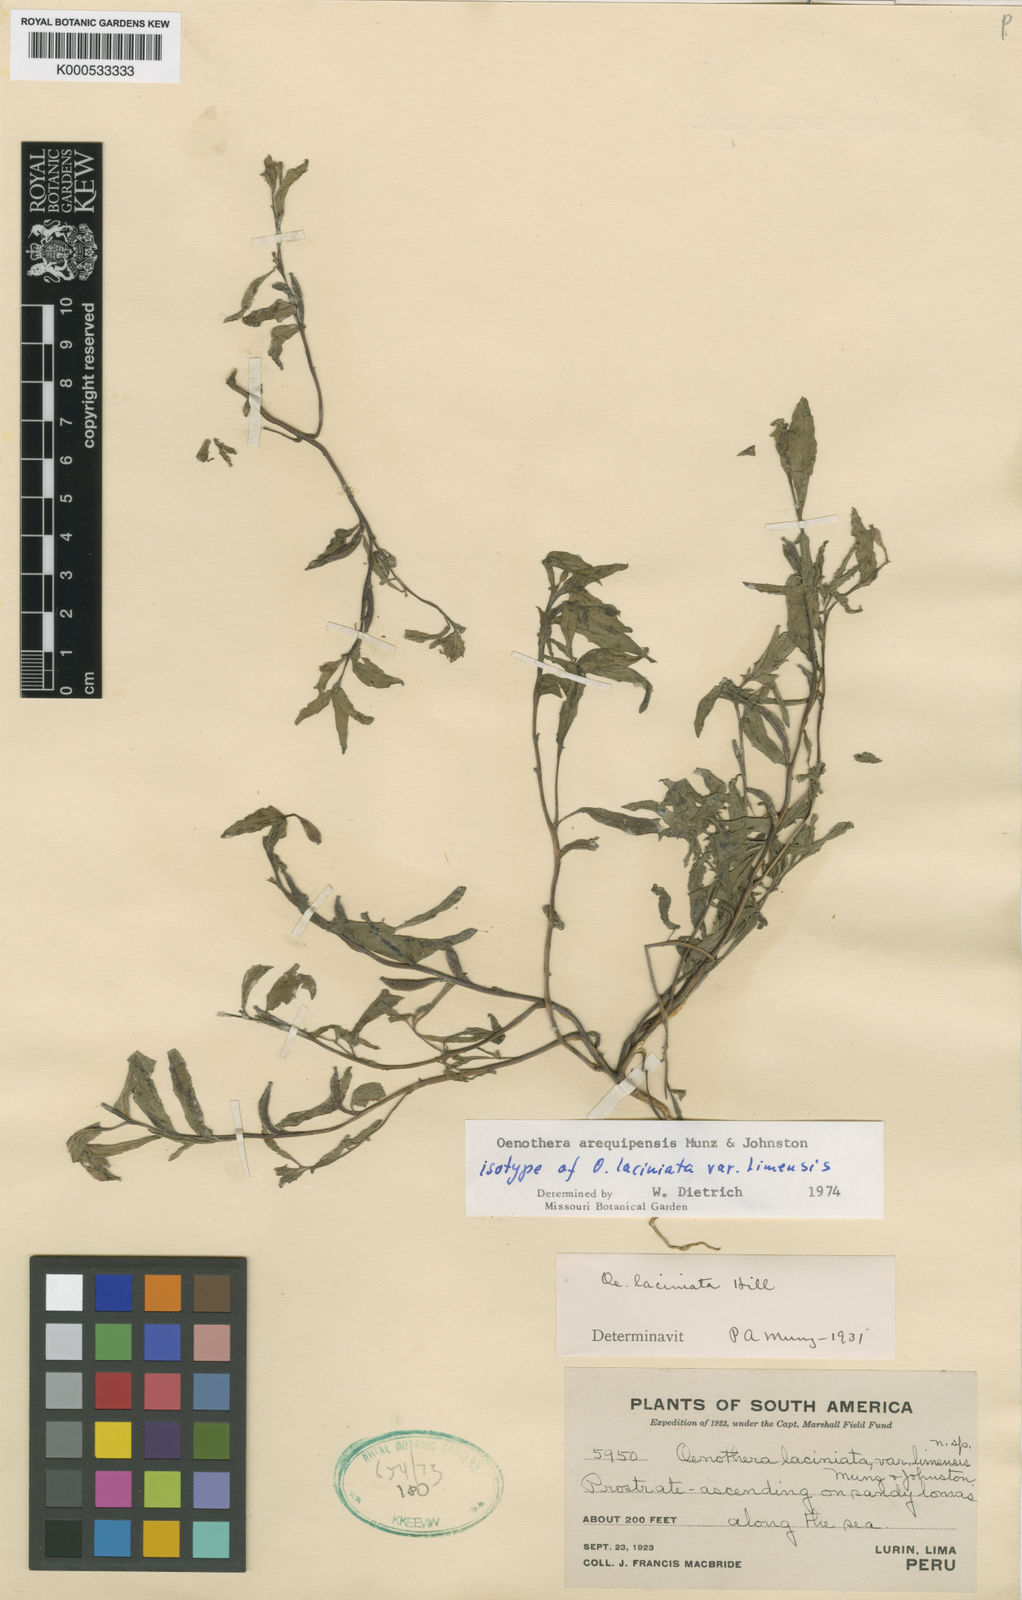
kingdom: Plantae
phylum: Tracheophyta
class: Magnoliopsida
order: Myrtales
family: Onagraceae
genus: Oenothera
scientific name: Oenothera arequipensis
